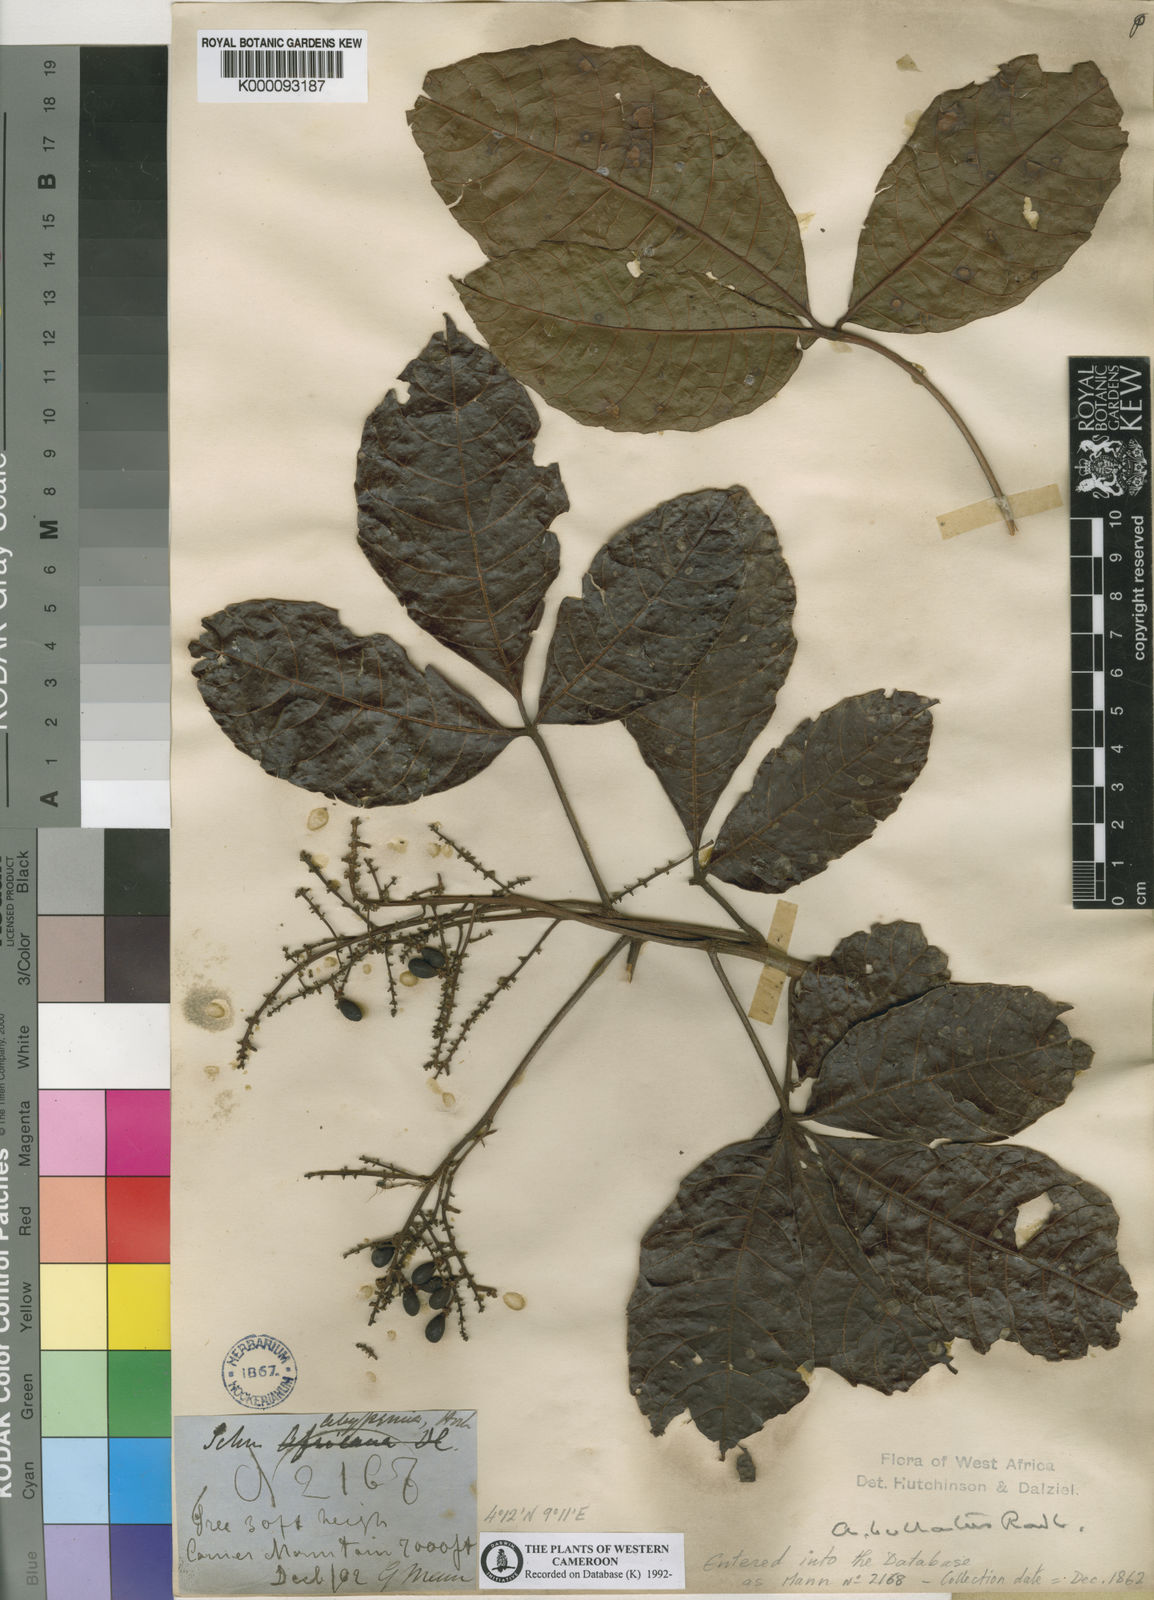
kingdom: Plantae
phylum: Tracheophyta
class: Magnoliopsida
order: Sapindales
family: Sapindaceae
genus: Allophylus
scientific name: Allophylus bullatus
